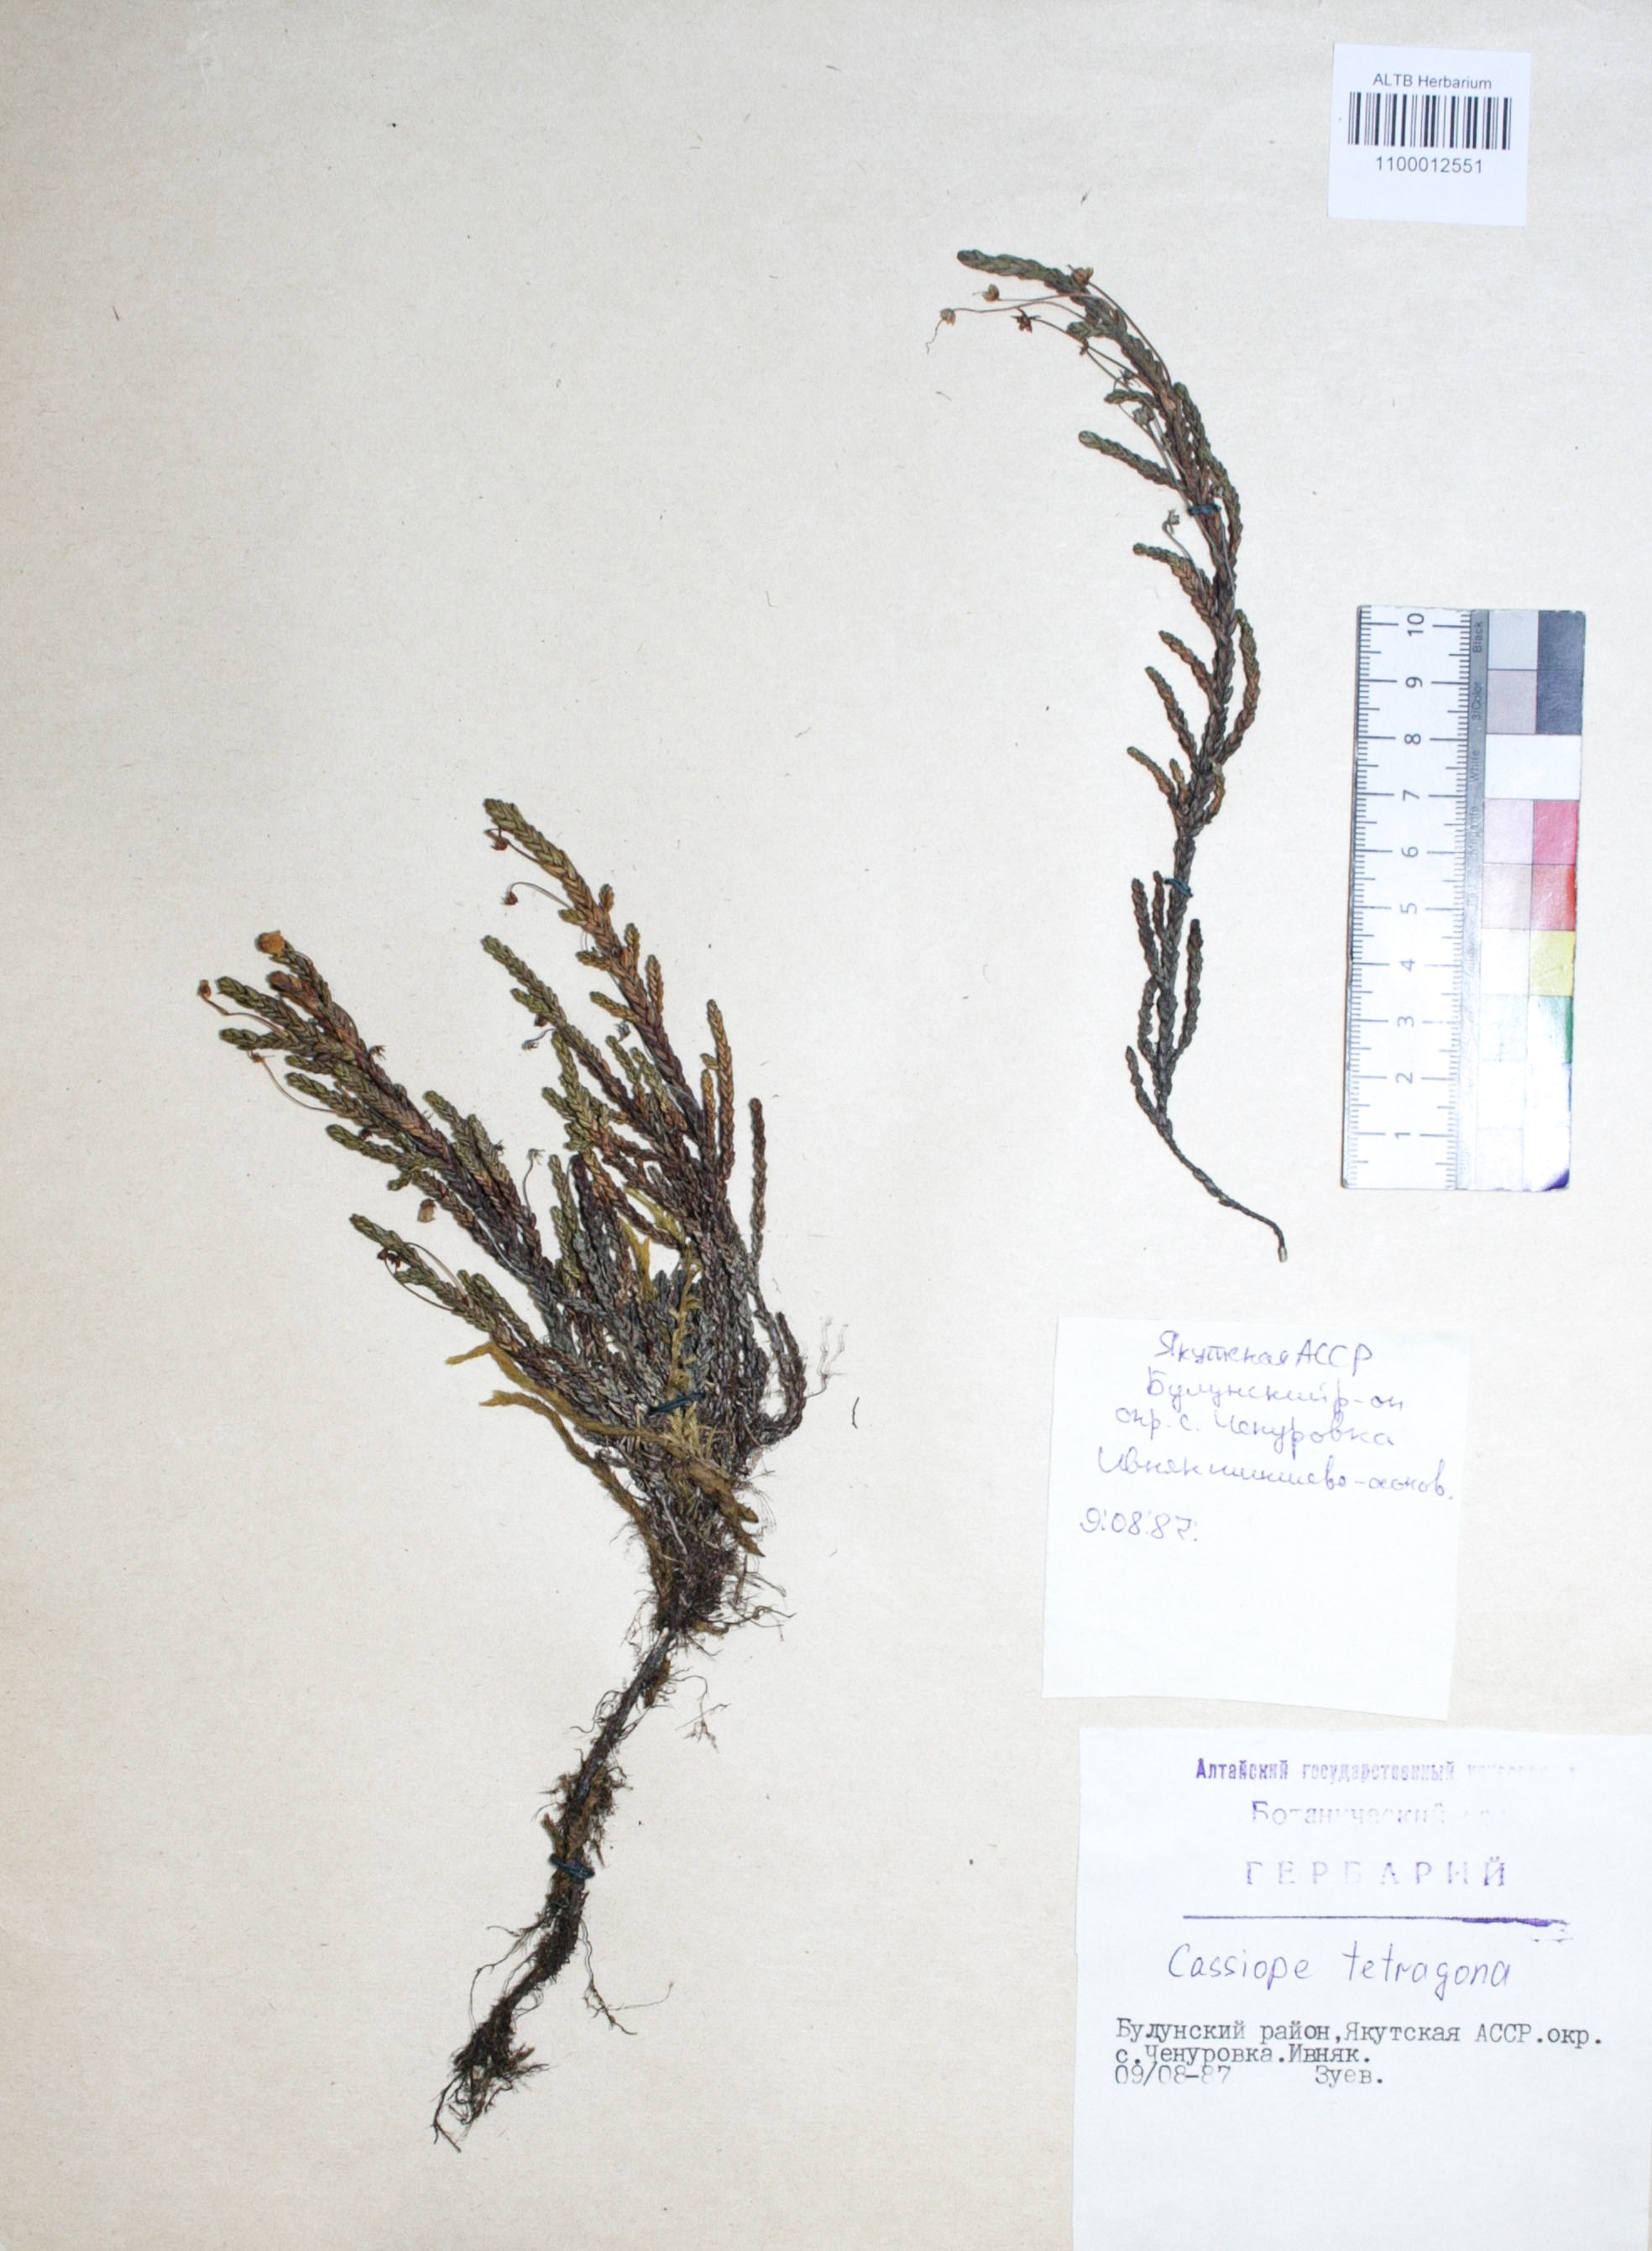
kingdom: Plantae
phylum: Tracheophyta
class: Magnoliopsida
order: Ericales
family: Ericaceae
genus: Cassiope
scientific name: Cassiope tetragona
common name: Arctic bell heather
